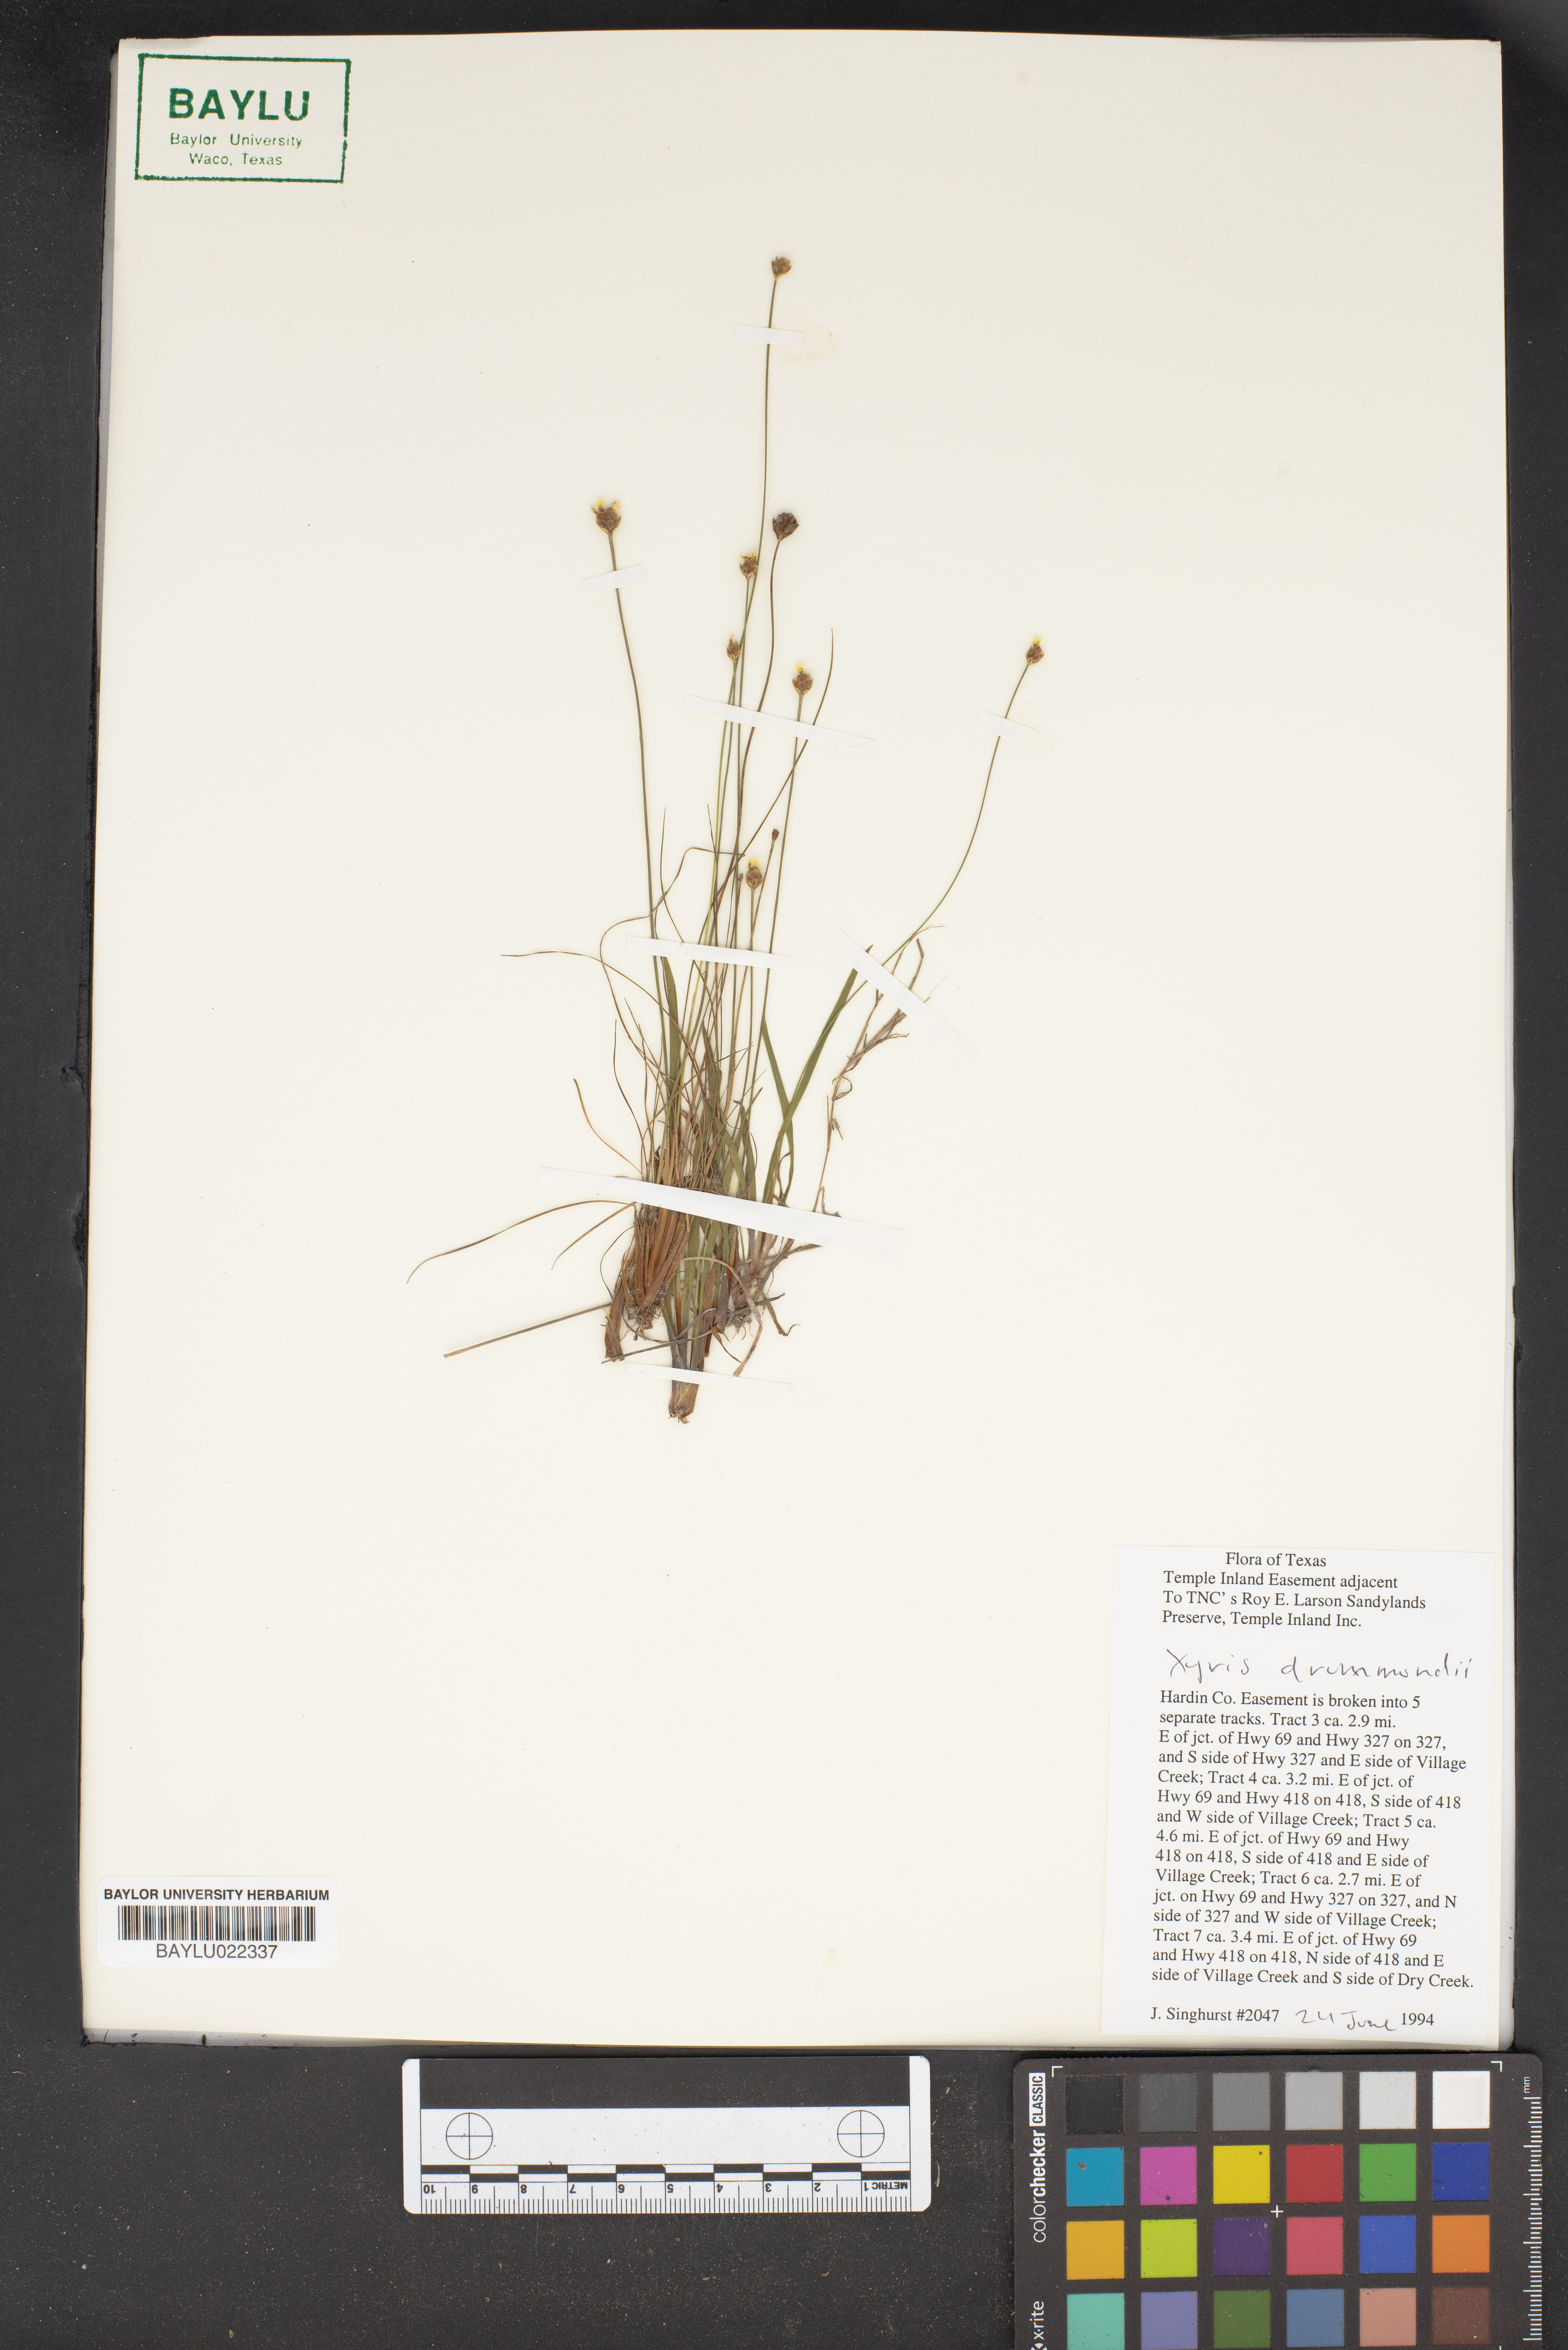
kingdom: Plantae
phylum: Tracheophyta
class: Liliopsida
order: Poales
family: Xyridaceae
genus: Xyris
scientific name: Xyris drummondii
